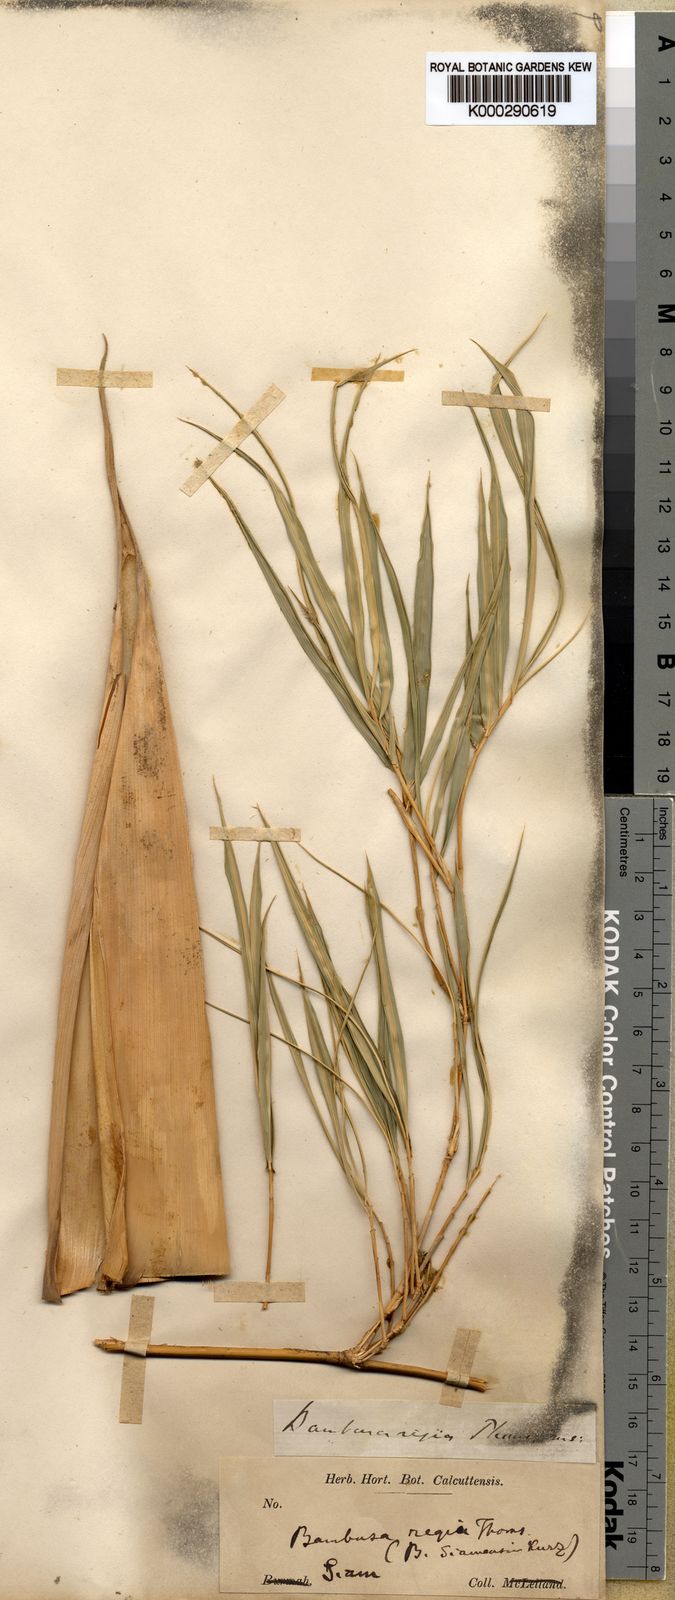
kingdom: Plantae
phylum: Tracheophyta
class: Liliopsida
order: Poales
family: Poaceae
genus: Thyrsostachys
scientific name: Thyrsostachys
